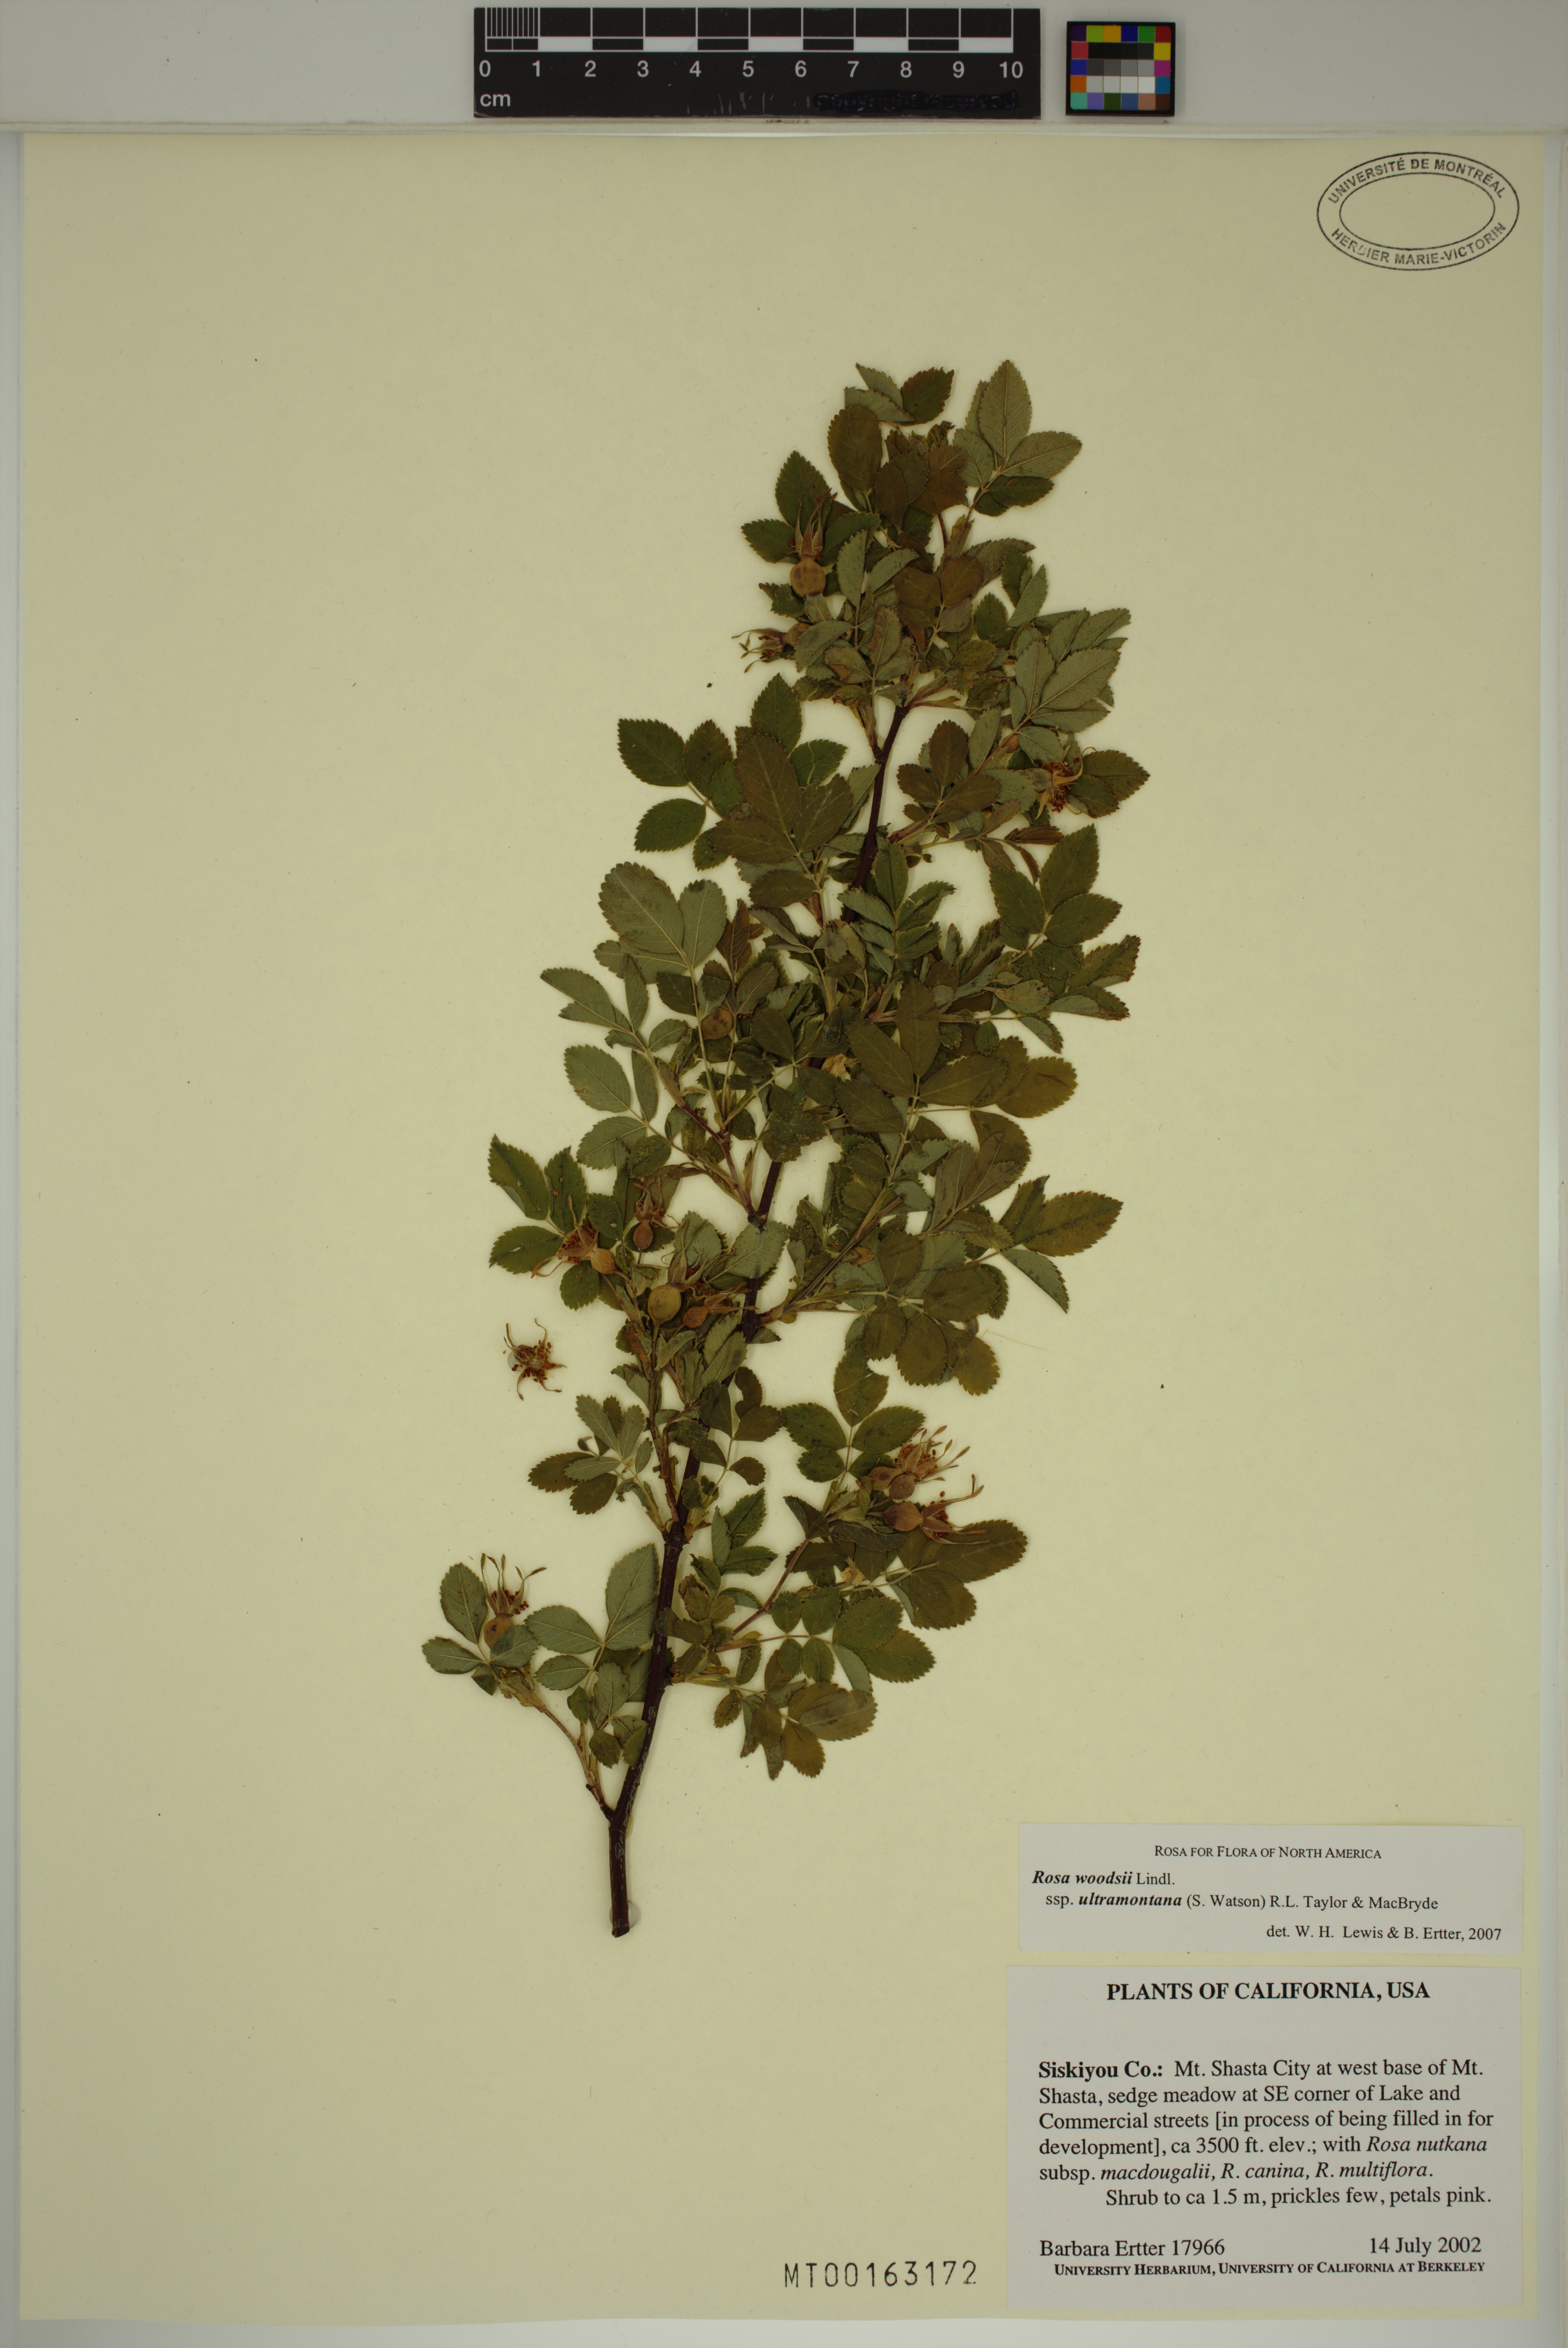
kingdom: Plantae
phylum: Tracheophyta
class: Magnoliopsida
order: Rosales
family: Rosaceae
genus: Rosa
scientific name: Rosa woodsii
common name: Woods's rose
